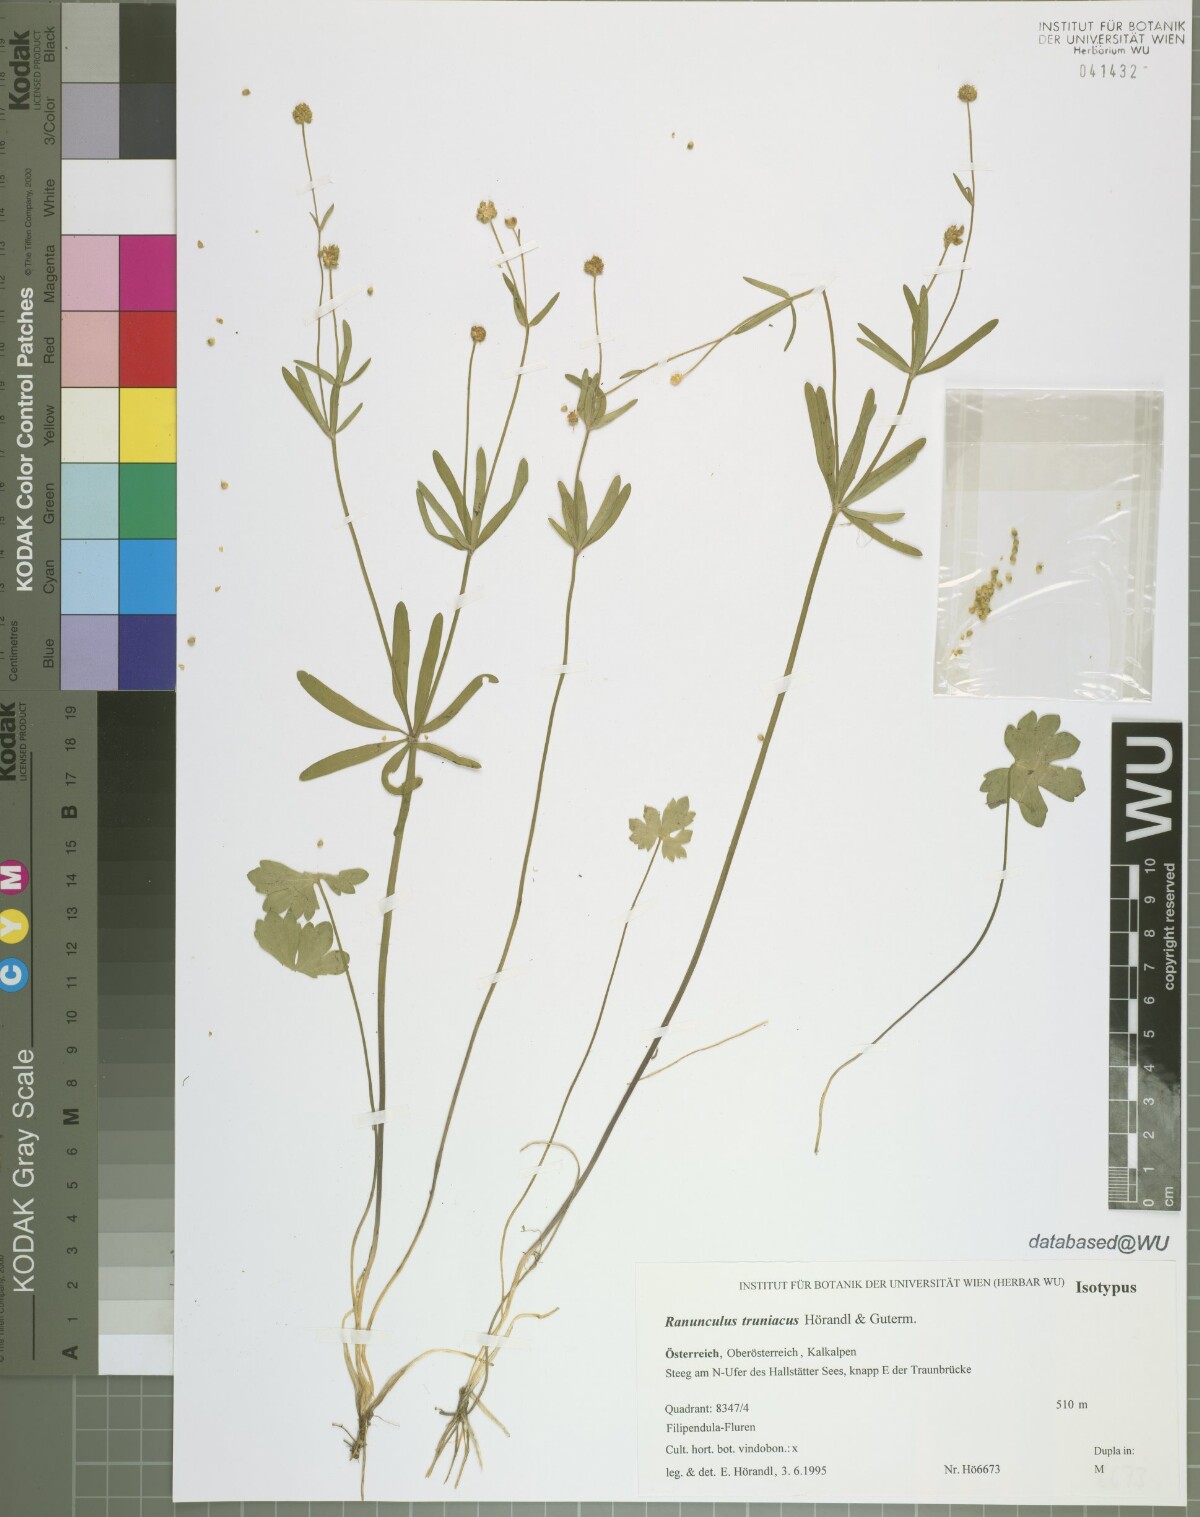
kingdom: Plantae
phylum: Tracheophyta
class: Magnoliopsida
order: Ranunculales
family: Ranunculaceae
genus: Ranunculus
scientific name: Ranunculus truniacus
